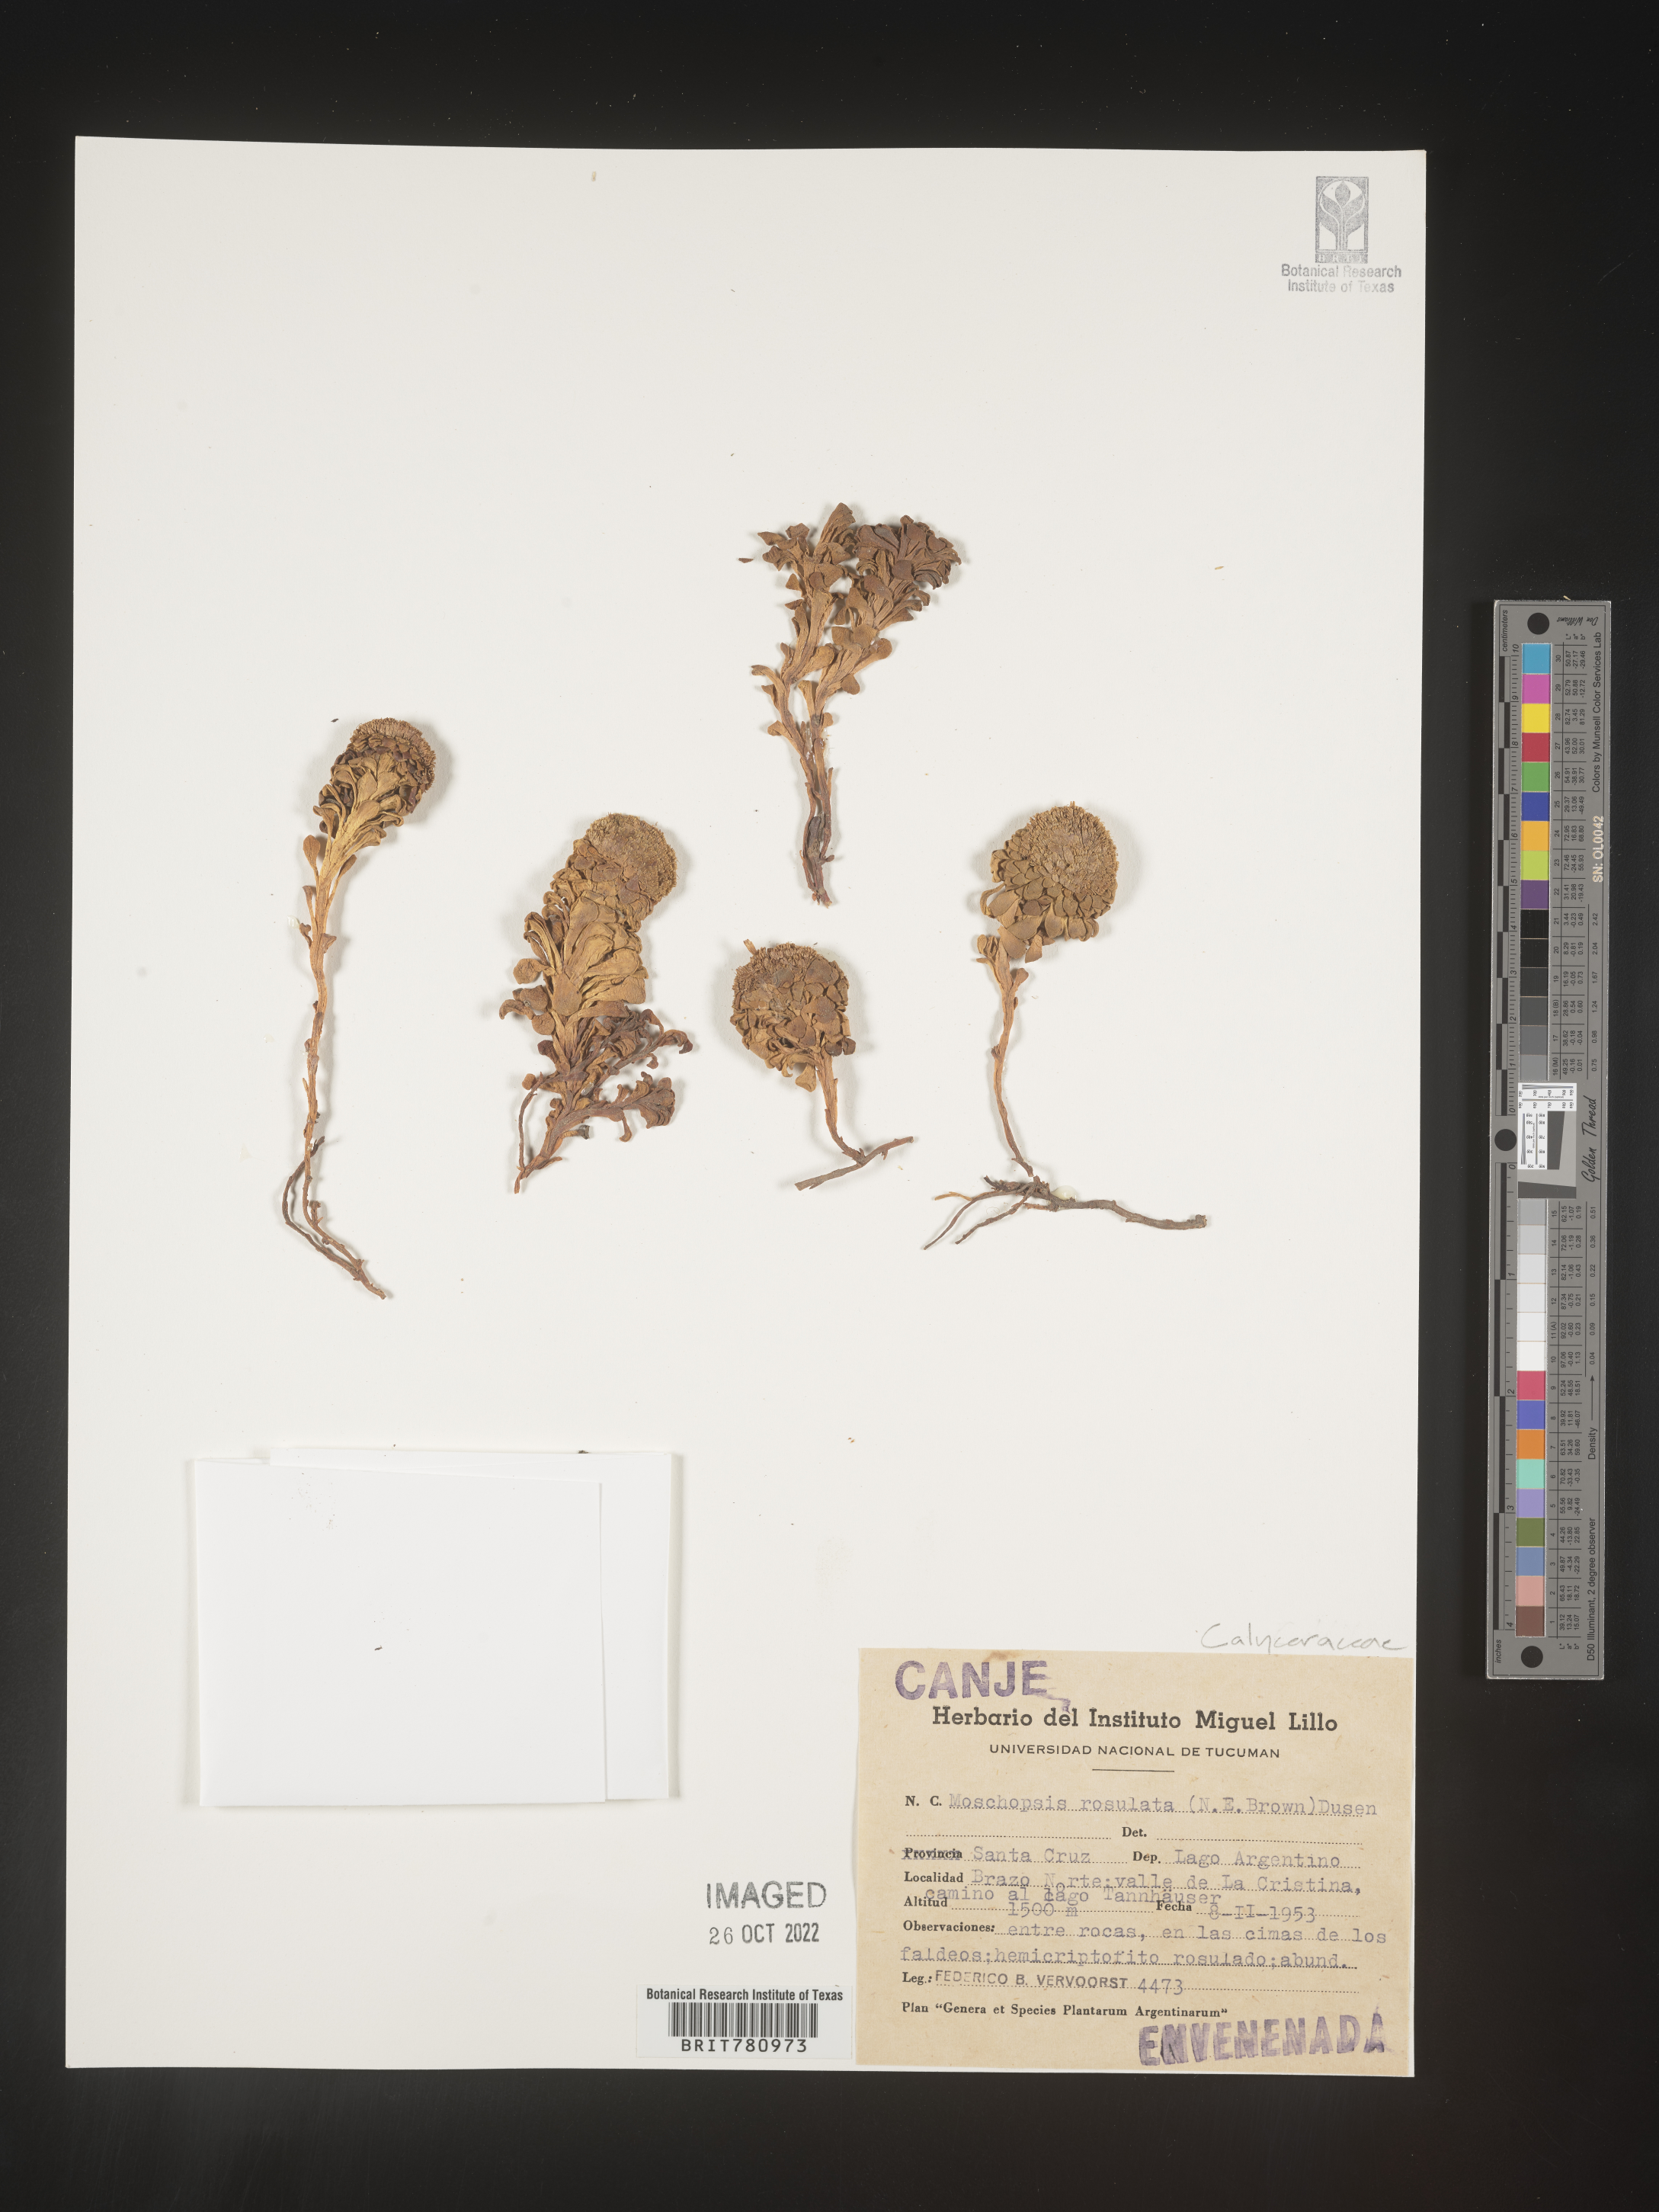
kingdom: Plantae
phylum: Tracheophyta
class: Magnoliopsida
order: Asterales
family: Calyceraceae
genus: Boopis
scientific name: Boopis
